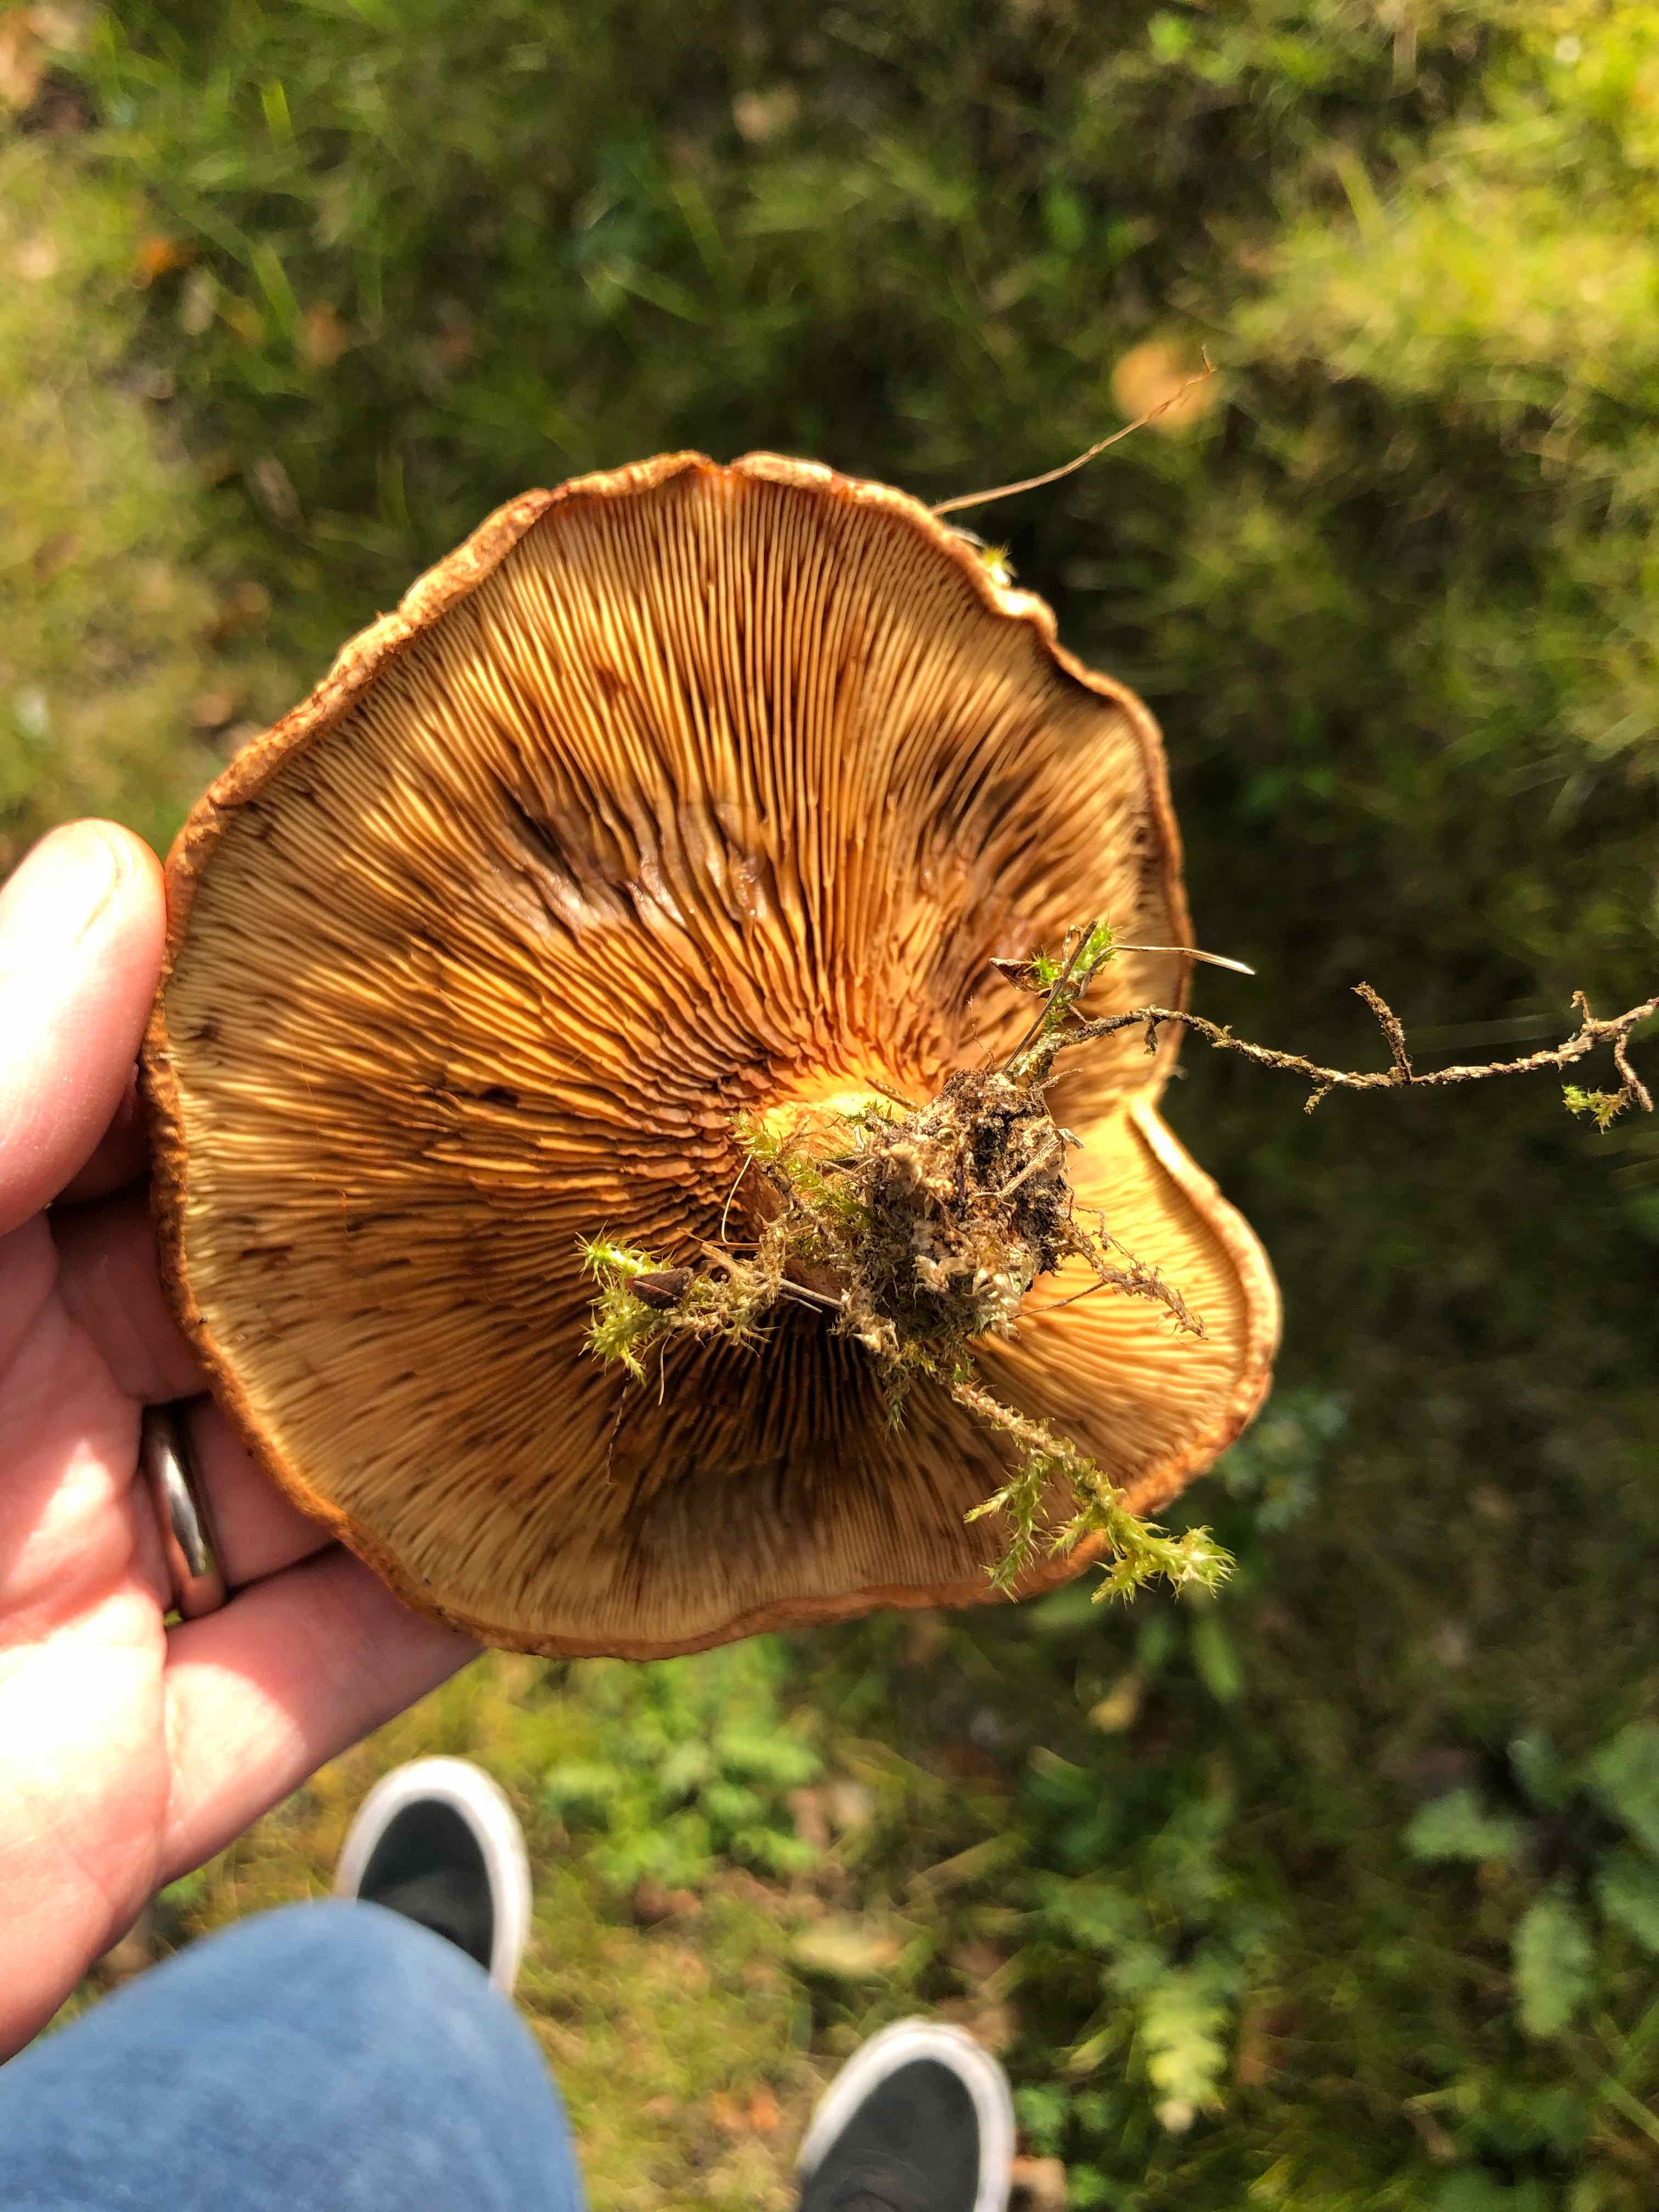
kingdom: Fungi
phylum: Basidiomycota
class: Agaricomycetes
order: Boletales
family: Paxillaceae
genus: Paxillus
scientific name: Paxillus
